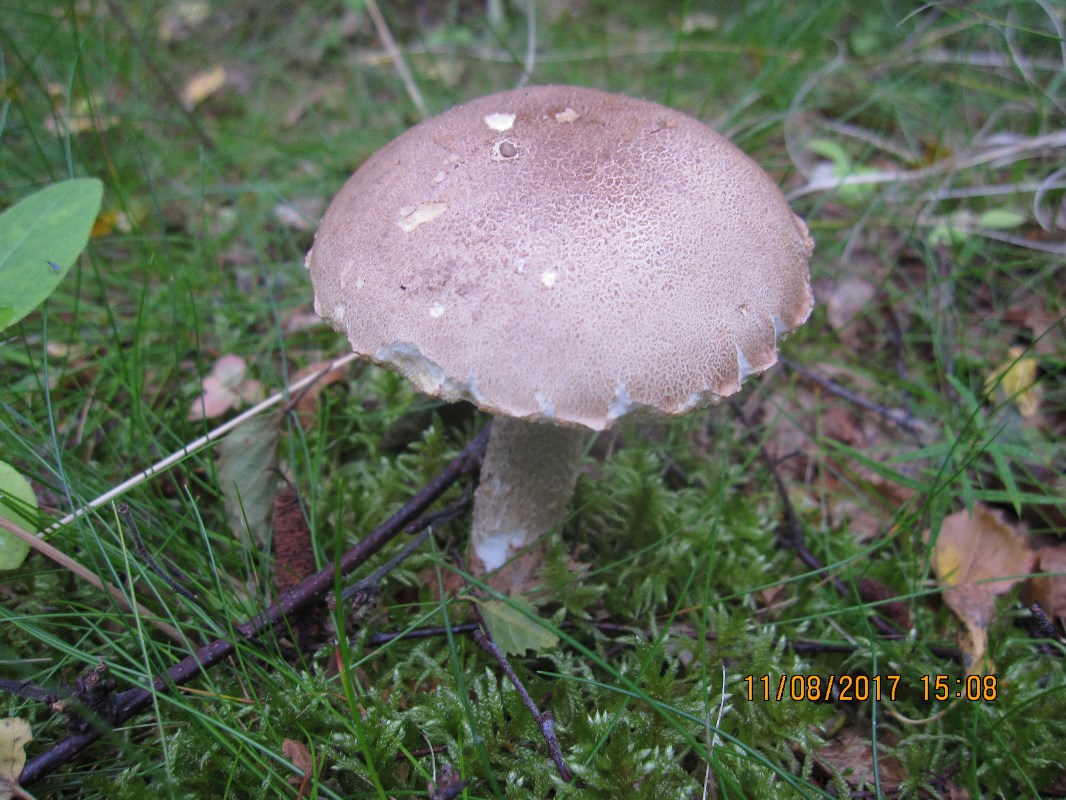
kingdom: Fungi
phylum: Basidiomycota
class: Agaricomycetes
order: Boletales
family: Boletaceae
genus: Leccinum
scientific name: Leccinum cyaneobasileucum
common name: almindelig skælrørhat
